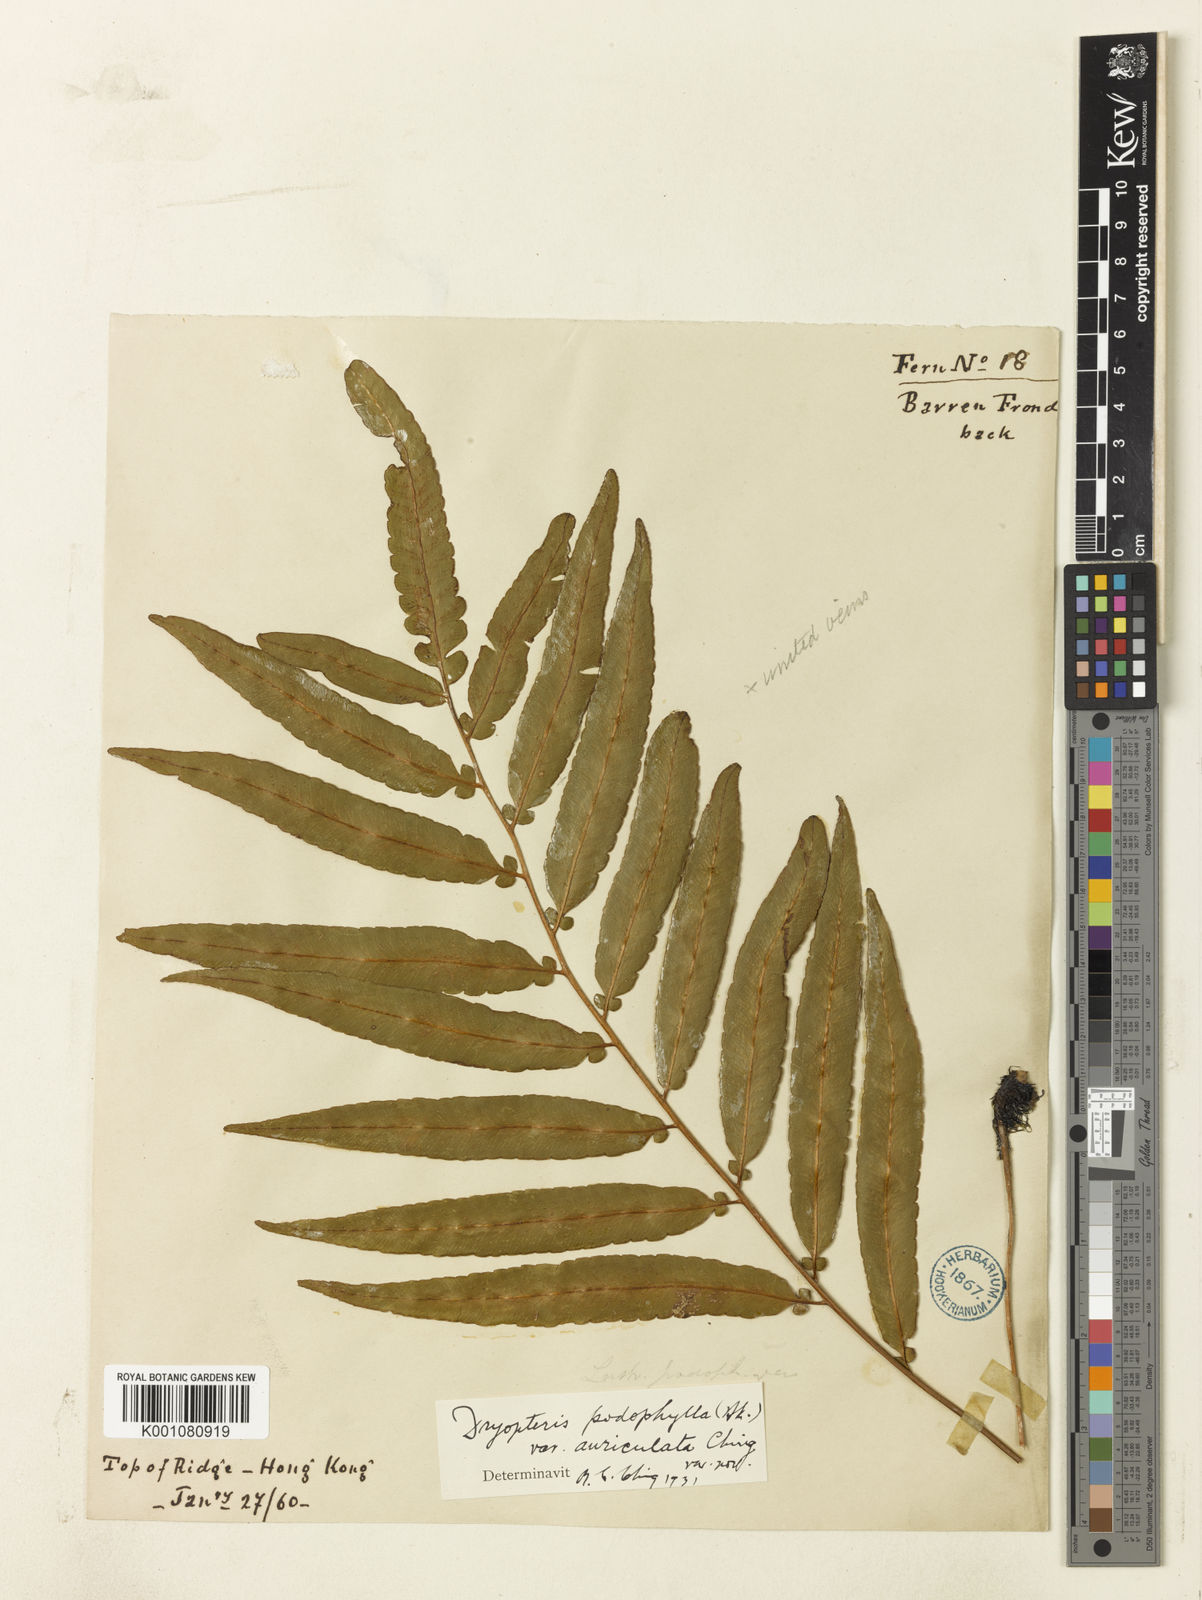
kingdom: Plantae
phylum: Tracheophyta
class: Polypodiopsida
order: Polypodiales
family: Dryopteridaceae
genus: Dryopteris
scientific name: Dryopteris podophylla
